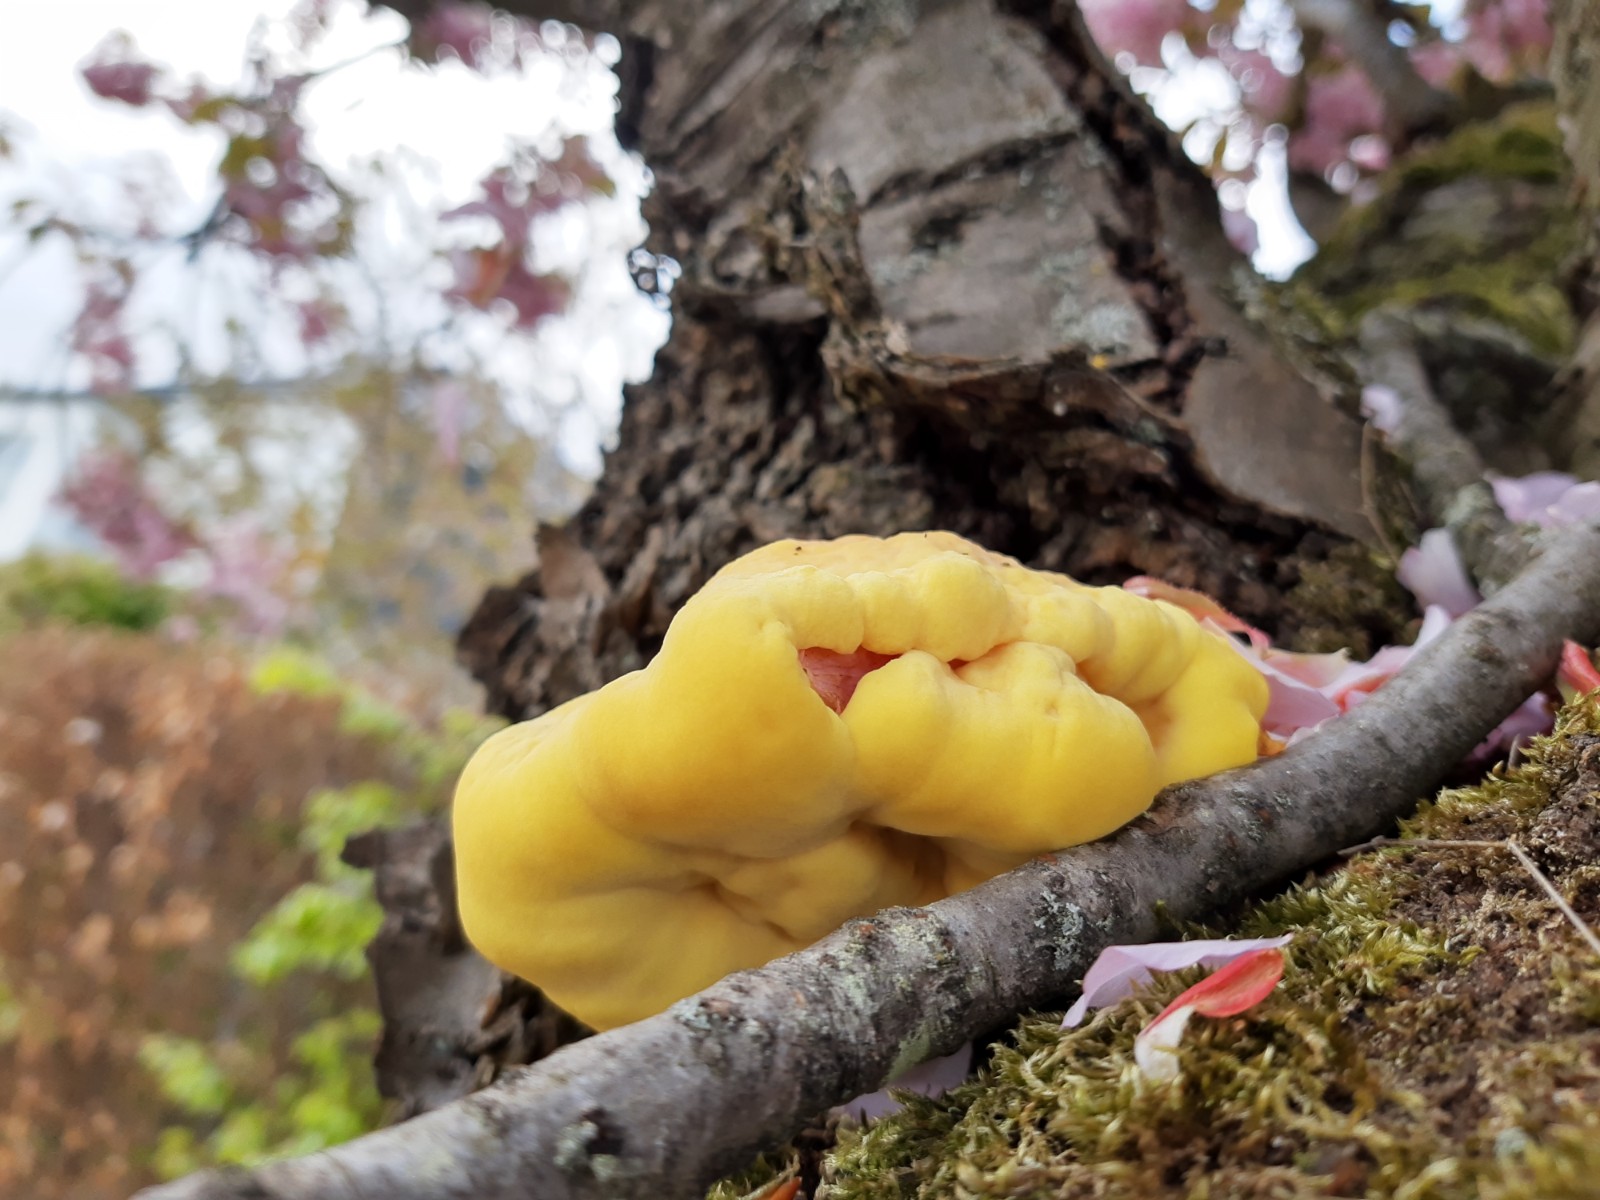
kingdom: Fungi
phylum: Basidiomycota
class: Agaricomycetes
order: Polyporales
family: Laetiporaceae
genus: Laetiporus
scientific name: Laetiporus sulphureus
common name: svovlporesvamp
